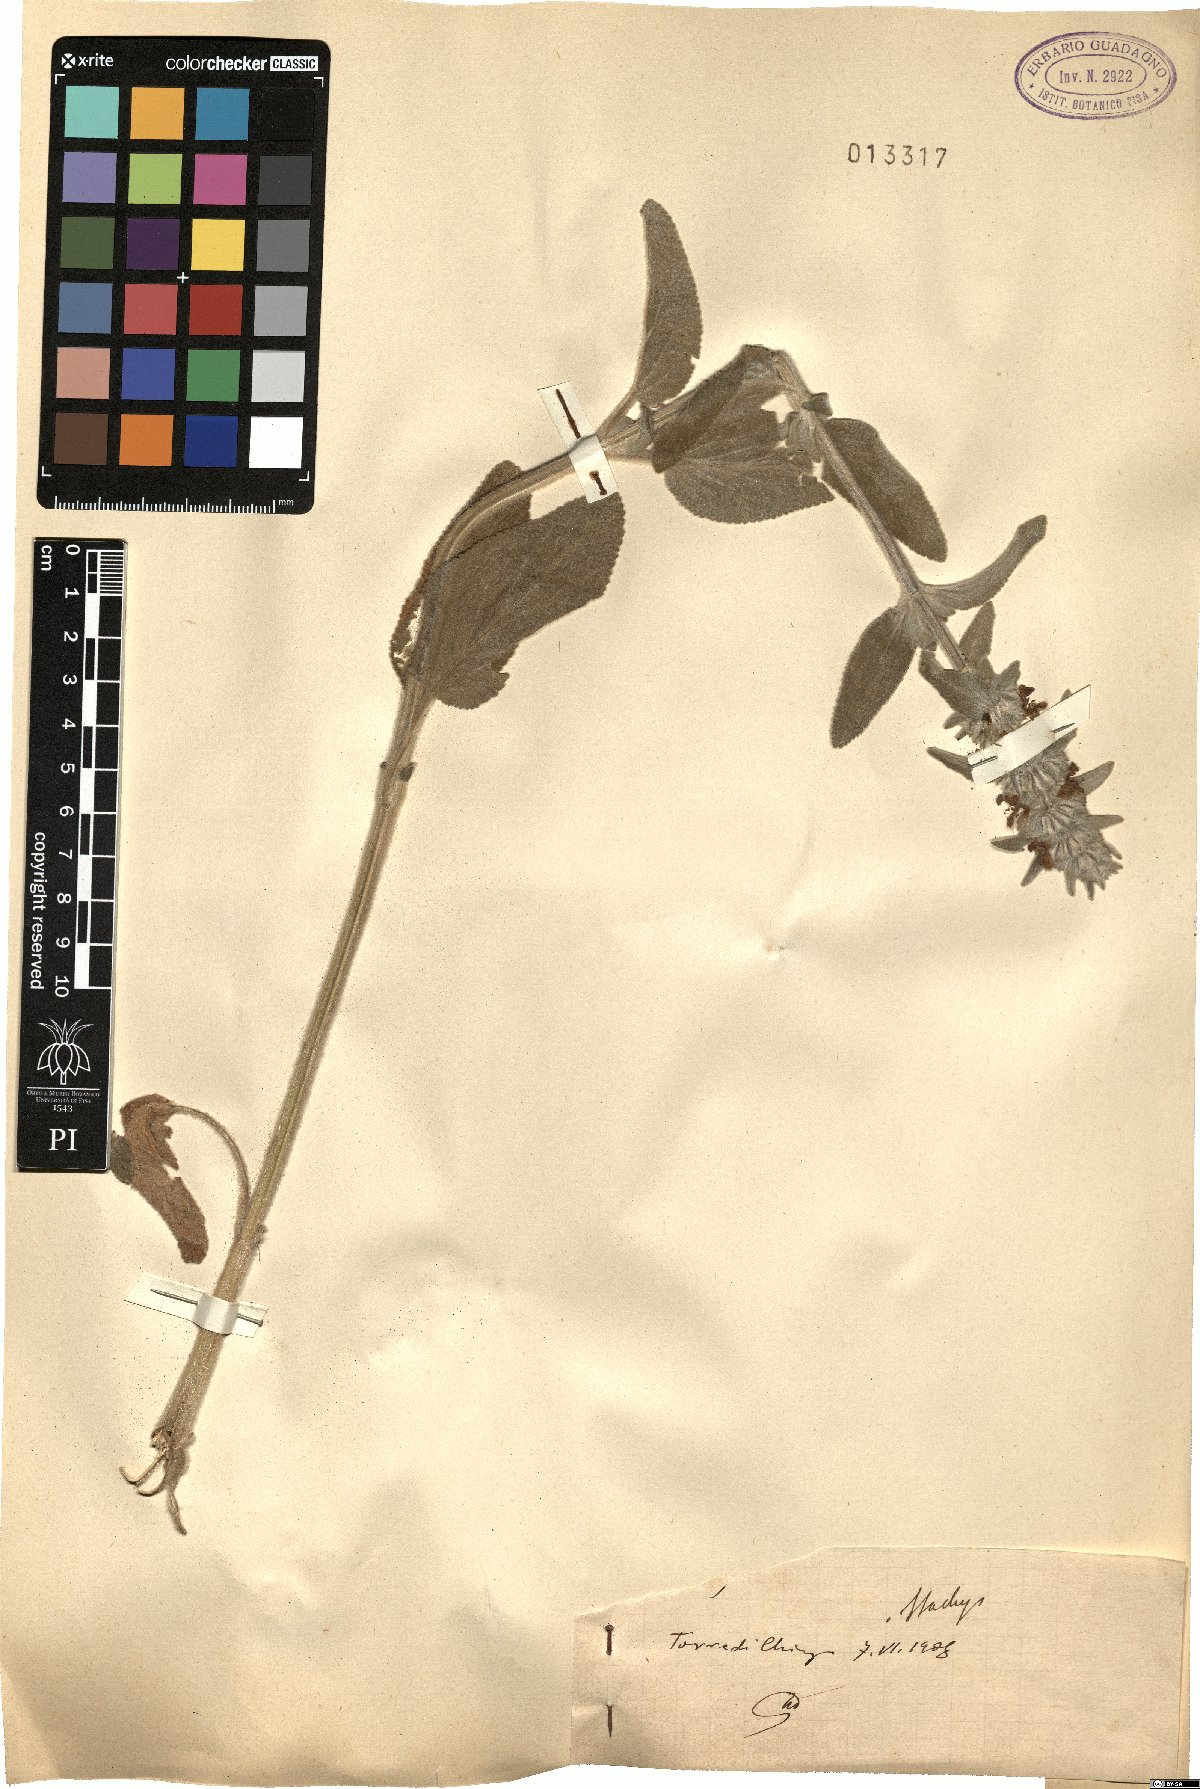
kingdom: Plantae
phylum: Tracheophyta
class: Magnoliopsida
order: Lamiales
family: Lamiaceae
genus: Stachys
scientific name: Stachys
